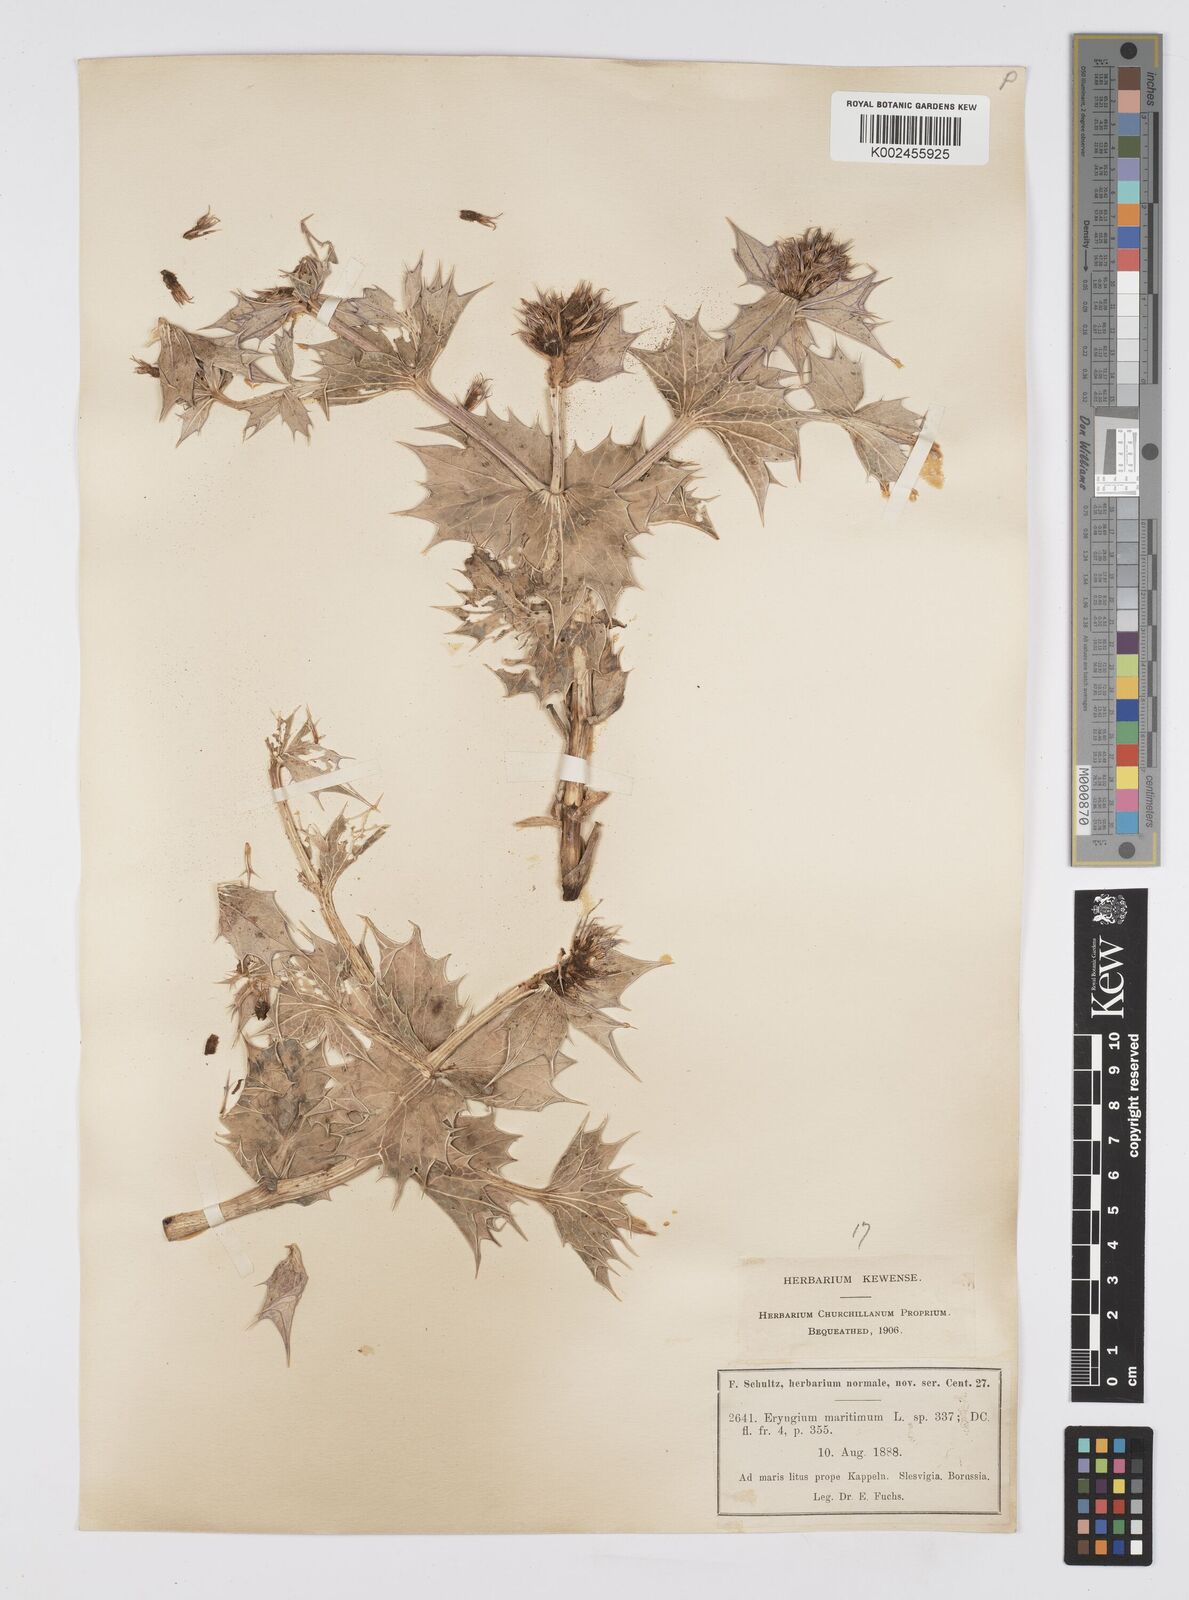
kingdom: Plantae
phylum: Tracheophyta
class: Magnoliopsida
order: Apiales
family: Apiaceae
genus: Eryngium
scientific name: Eryngium maritimum
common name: Sea-holly
